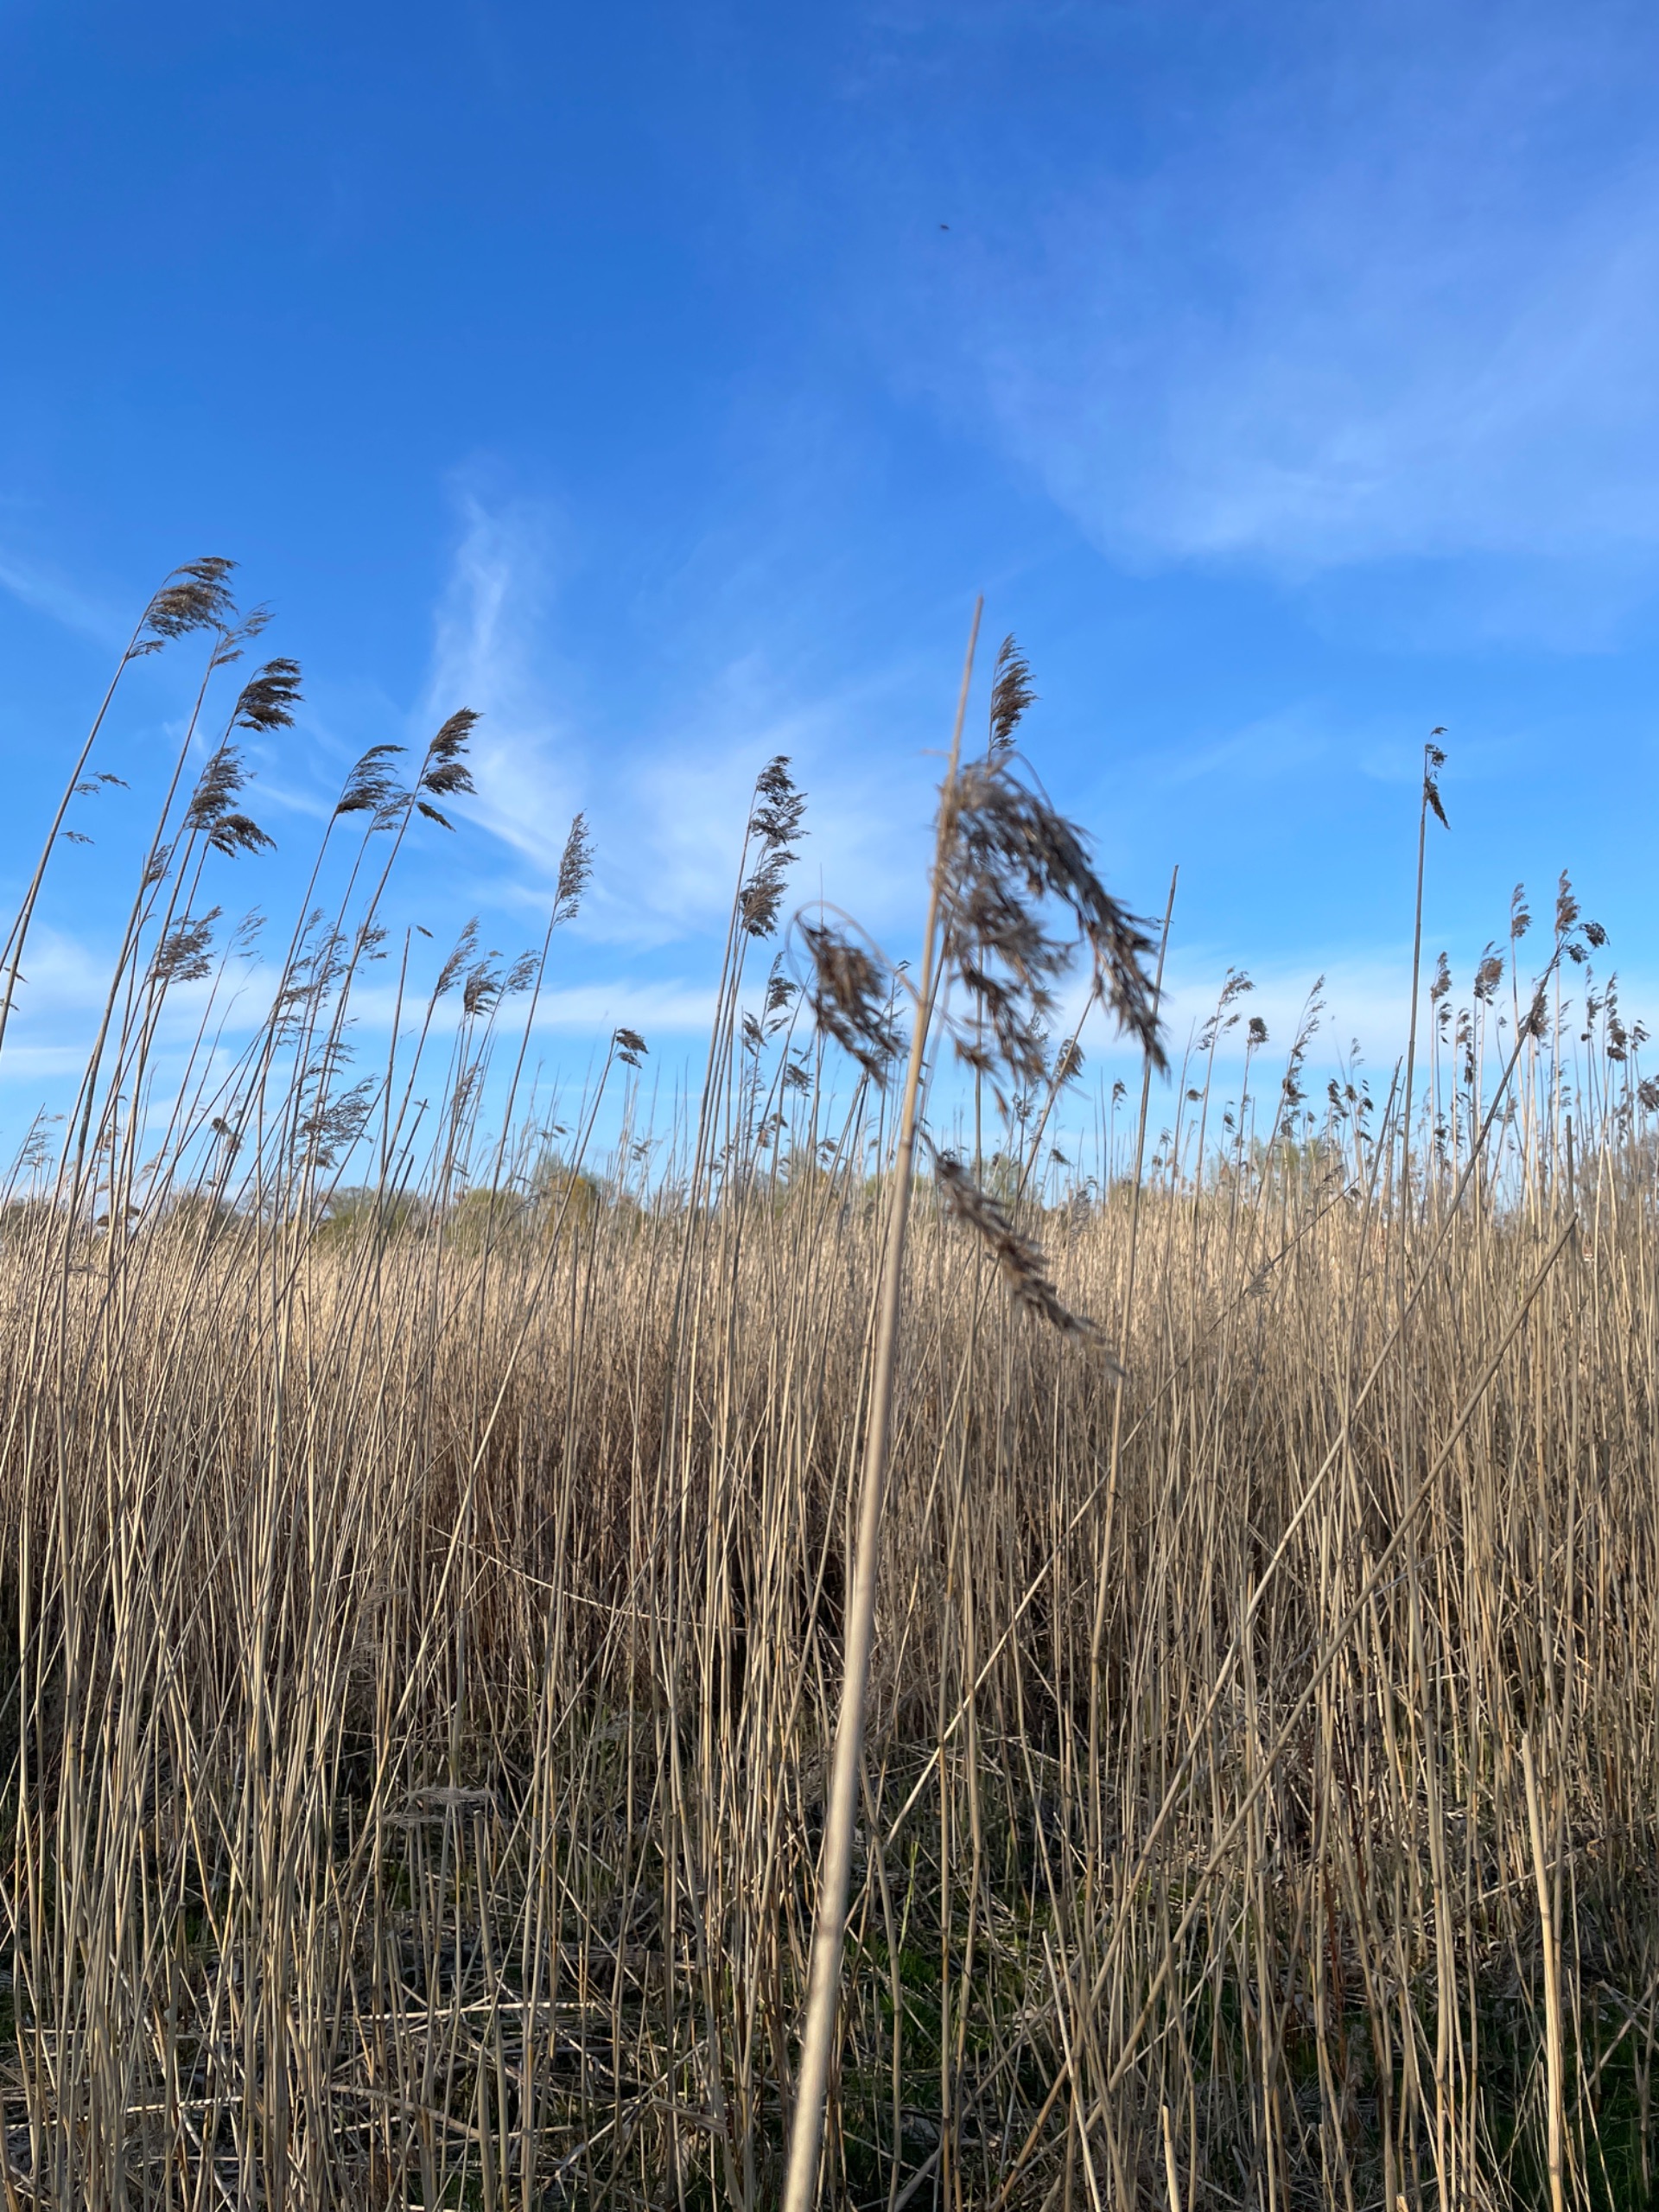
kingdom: Plantae
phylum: Tracheophyta
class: Liliopsida
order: Poales
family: Poaceae
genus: Phragmites
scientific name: Phragmites australis
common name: Tagrør
